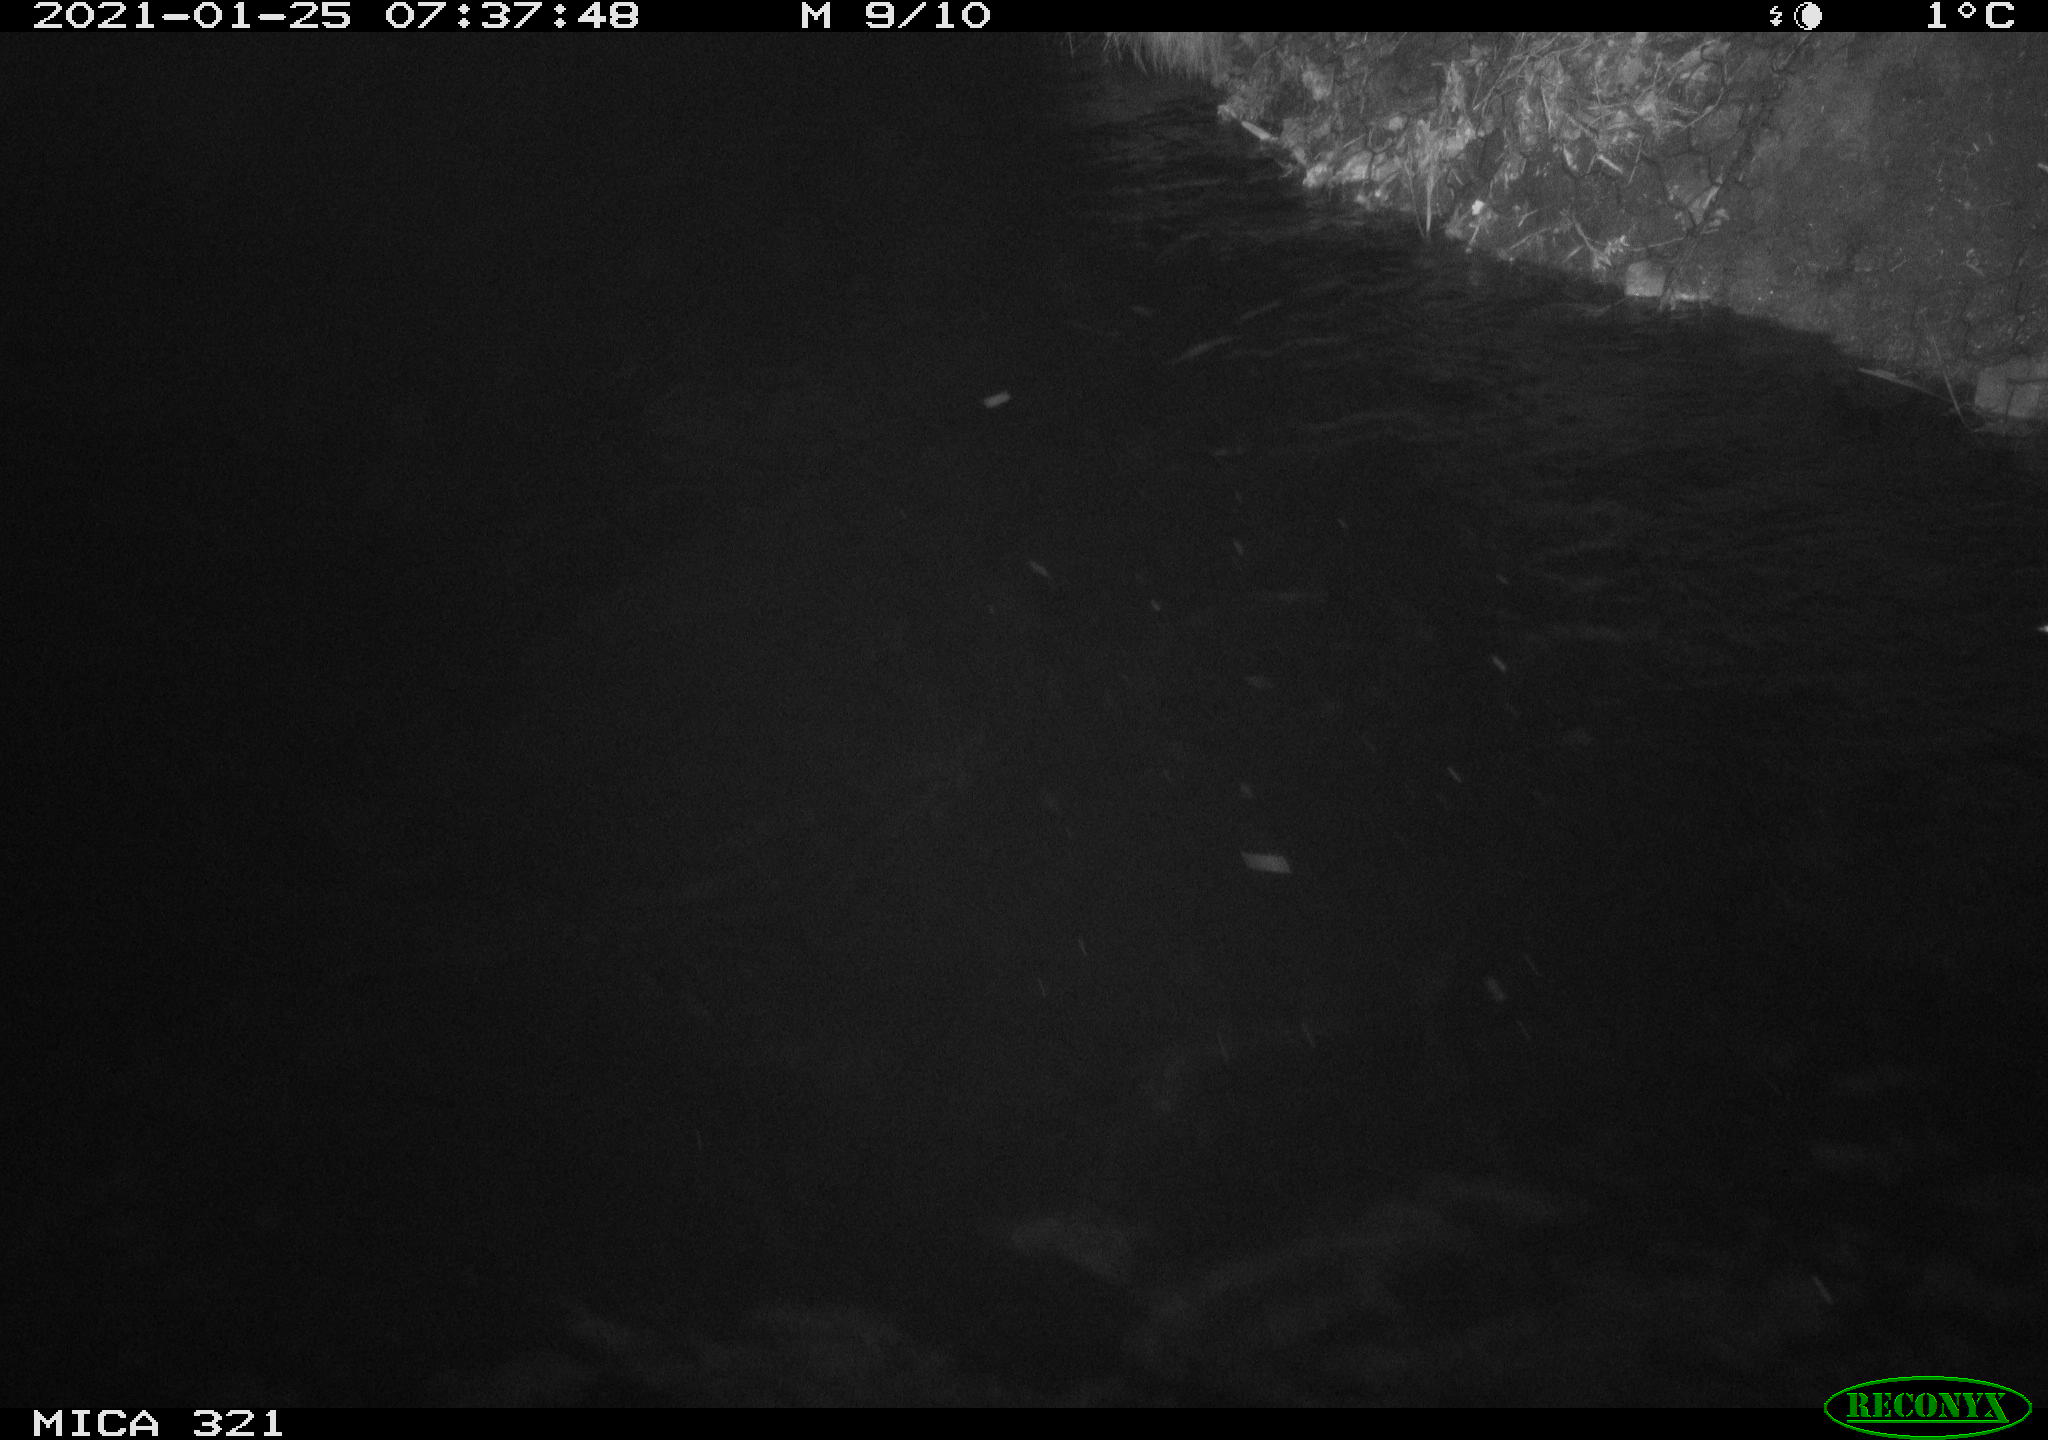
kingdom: Animalia
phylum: Chordata
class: Aves
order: Anseriformes
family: Anatidae
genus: Anas
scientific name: Anas platyrhynchos
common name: Mallard
